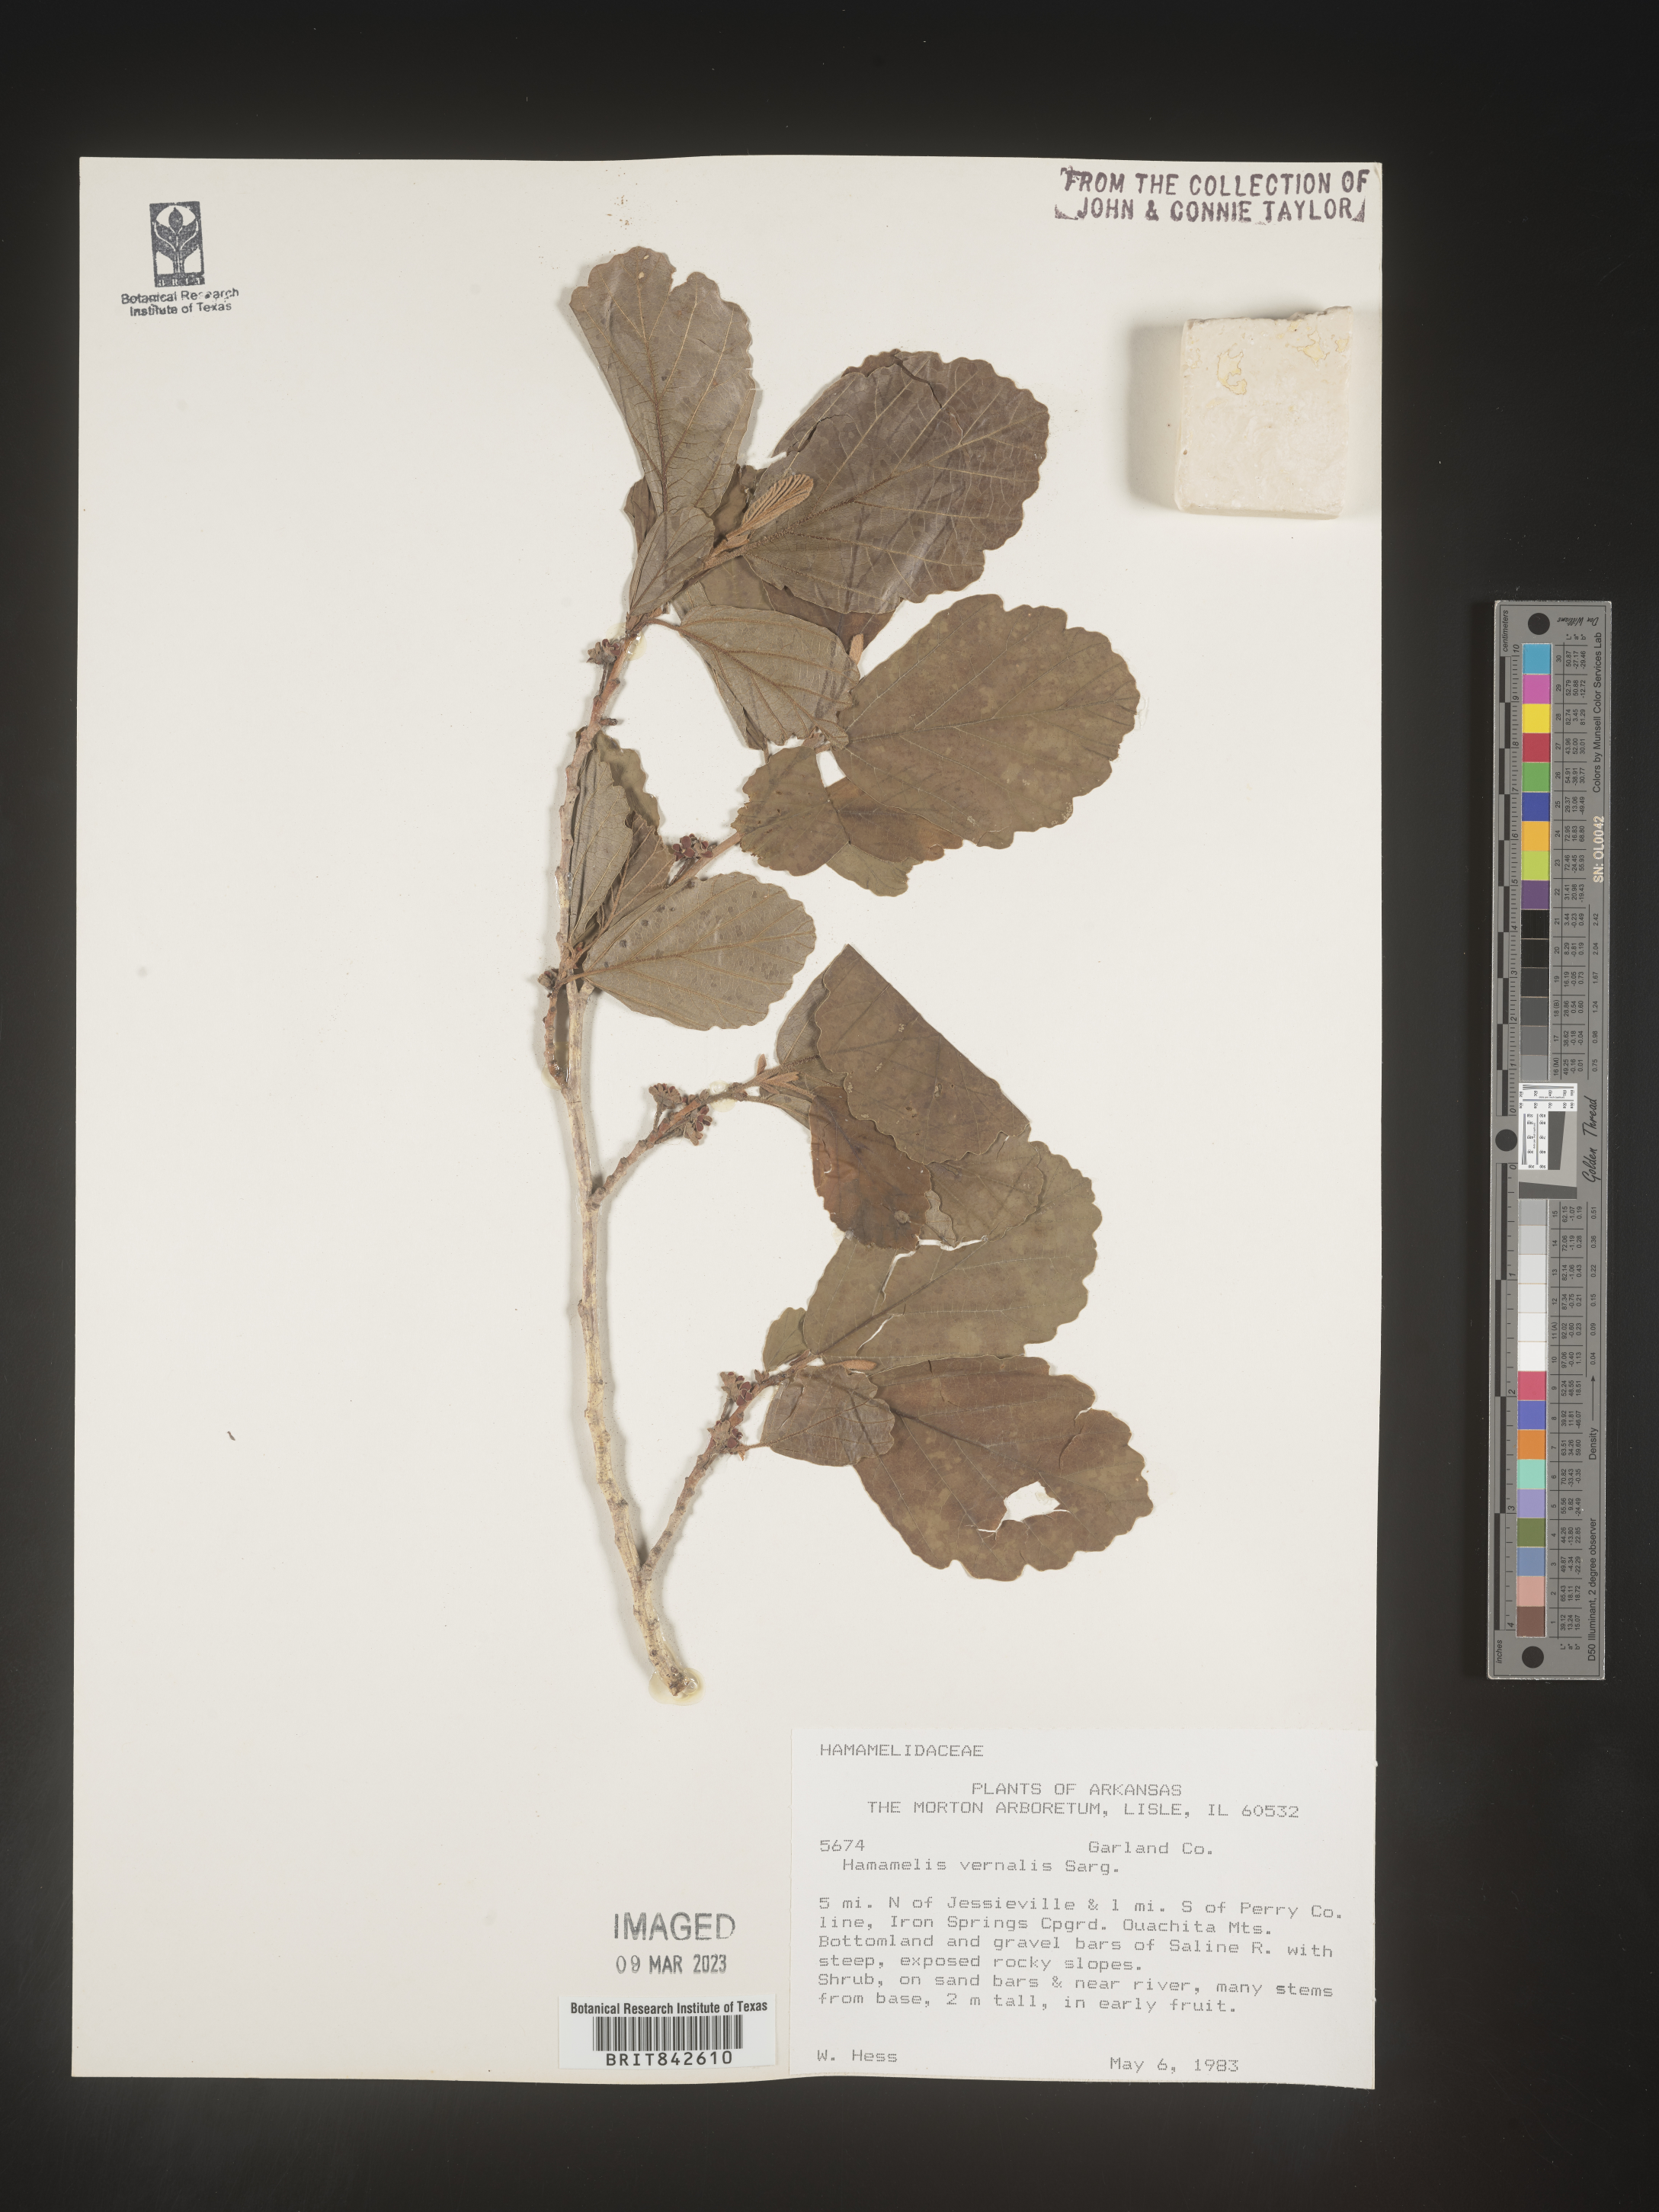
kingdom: Plantae
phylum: Tracheophyta
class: Magnoliopsida
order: Saxifragales
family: Hamamelidaceae
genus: Hamamelis
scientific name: Hamamelis vernalis
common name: Ozark witch-hazel
